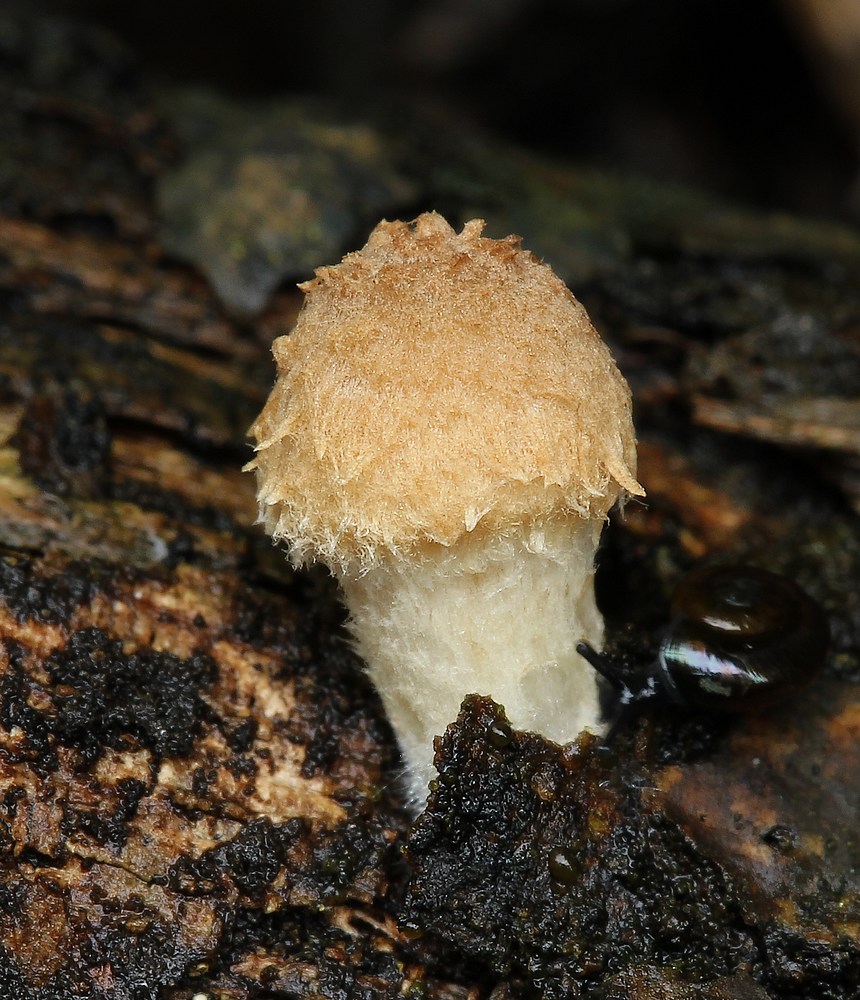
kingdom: Fungi
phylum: Basidiomycota
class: Agaricomycetes
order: Agaricales
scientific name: Agaricales
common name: champignonordenen
